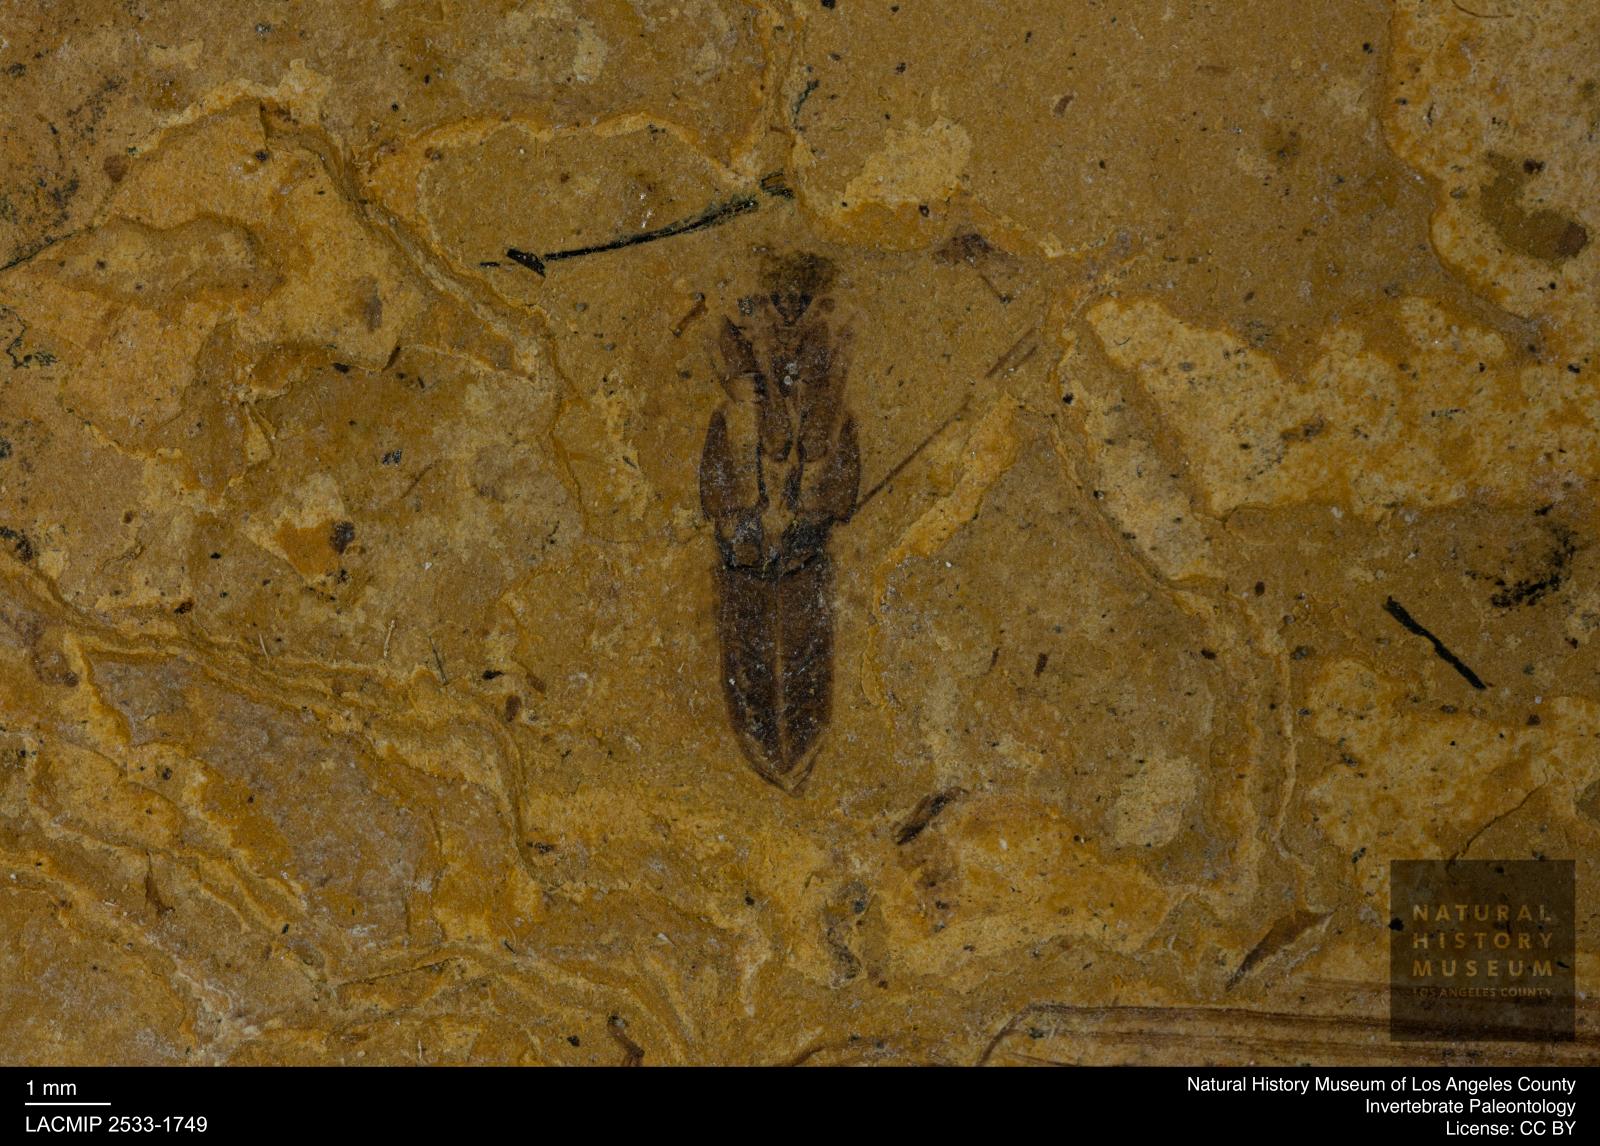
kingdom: Animalia
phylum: Arthropoda
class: Insecta
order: Hemiptera
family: Notonectidae
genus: Notonecta
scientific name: Notonecta
